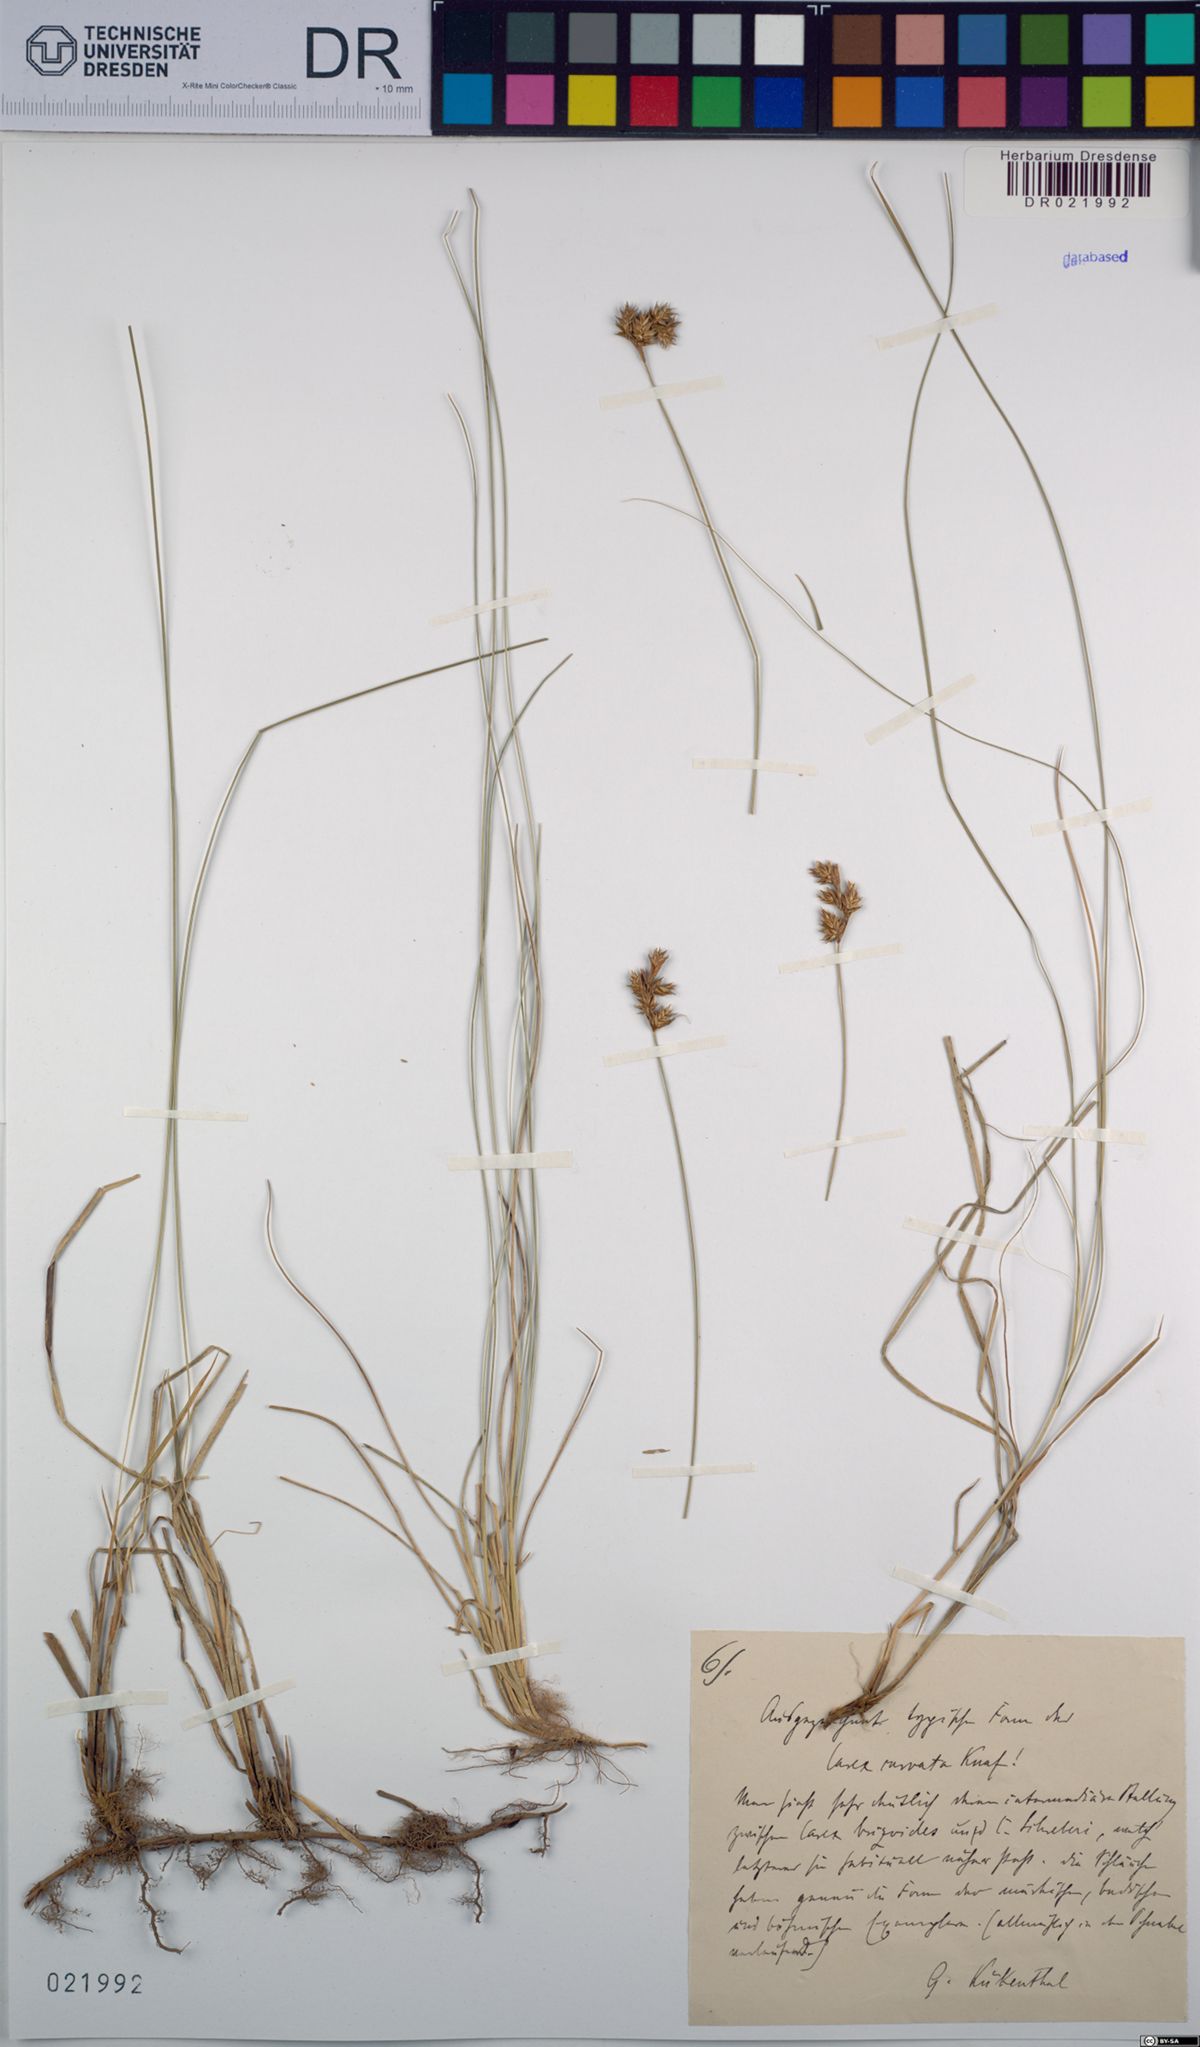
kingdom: Plantae
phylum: Tracheophyta
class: Liliopsida
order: Poales
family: Cyperaceae
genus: Carex
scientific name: Carex curvata
